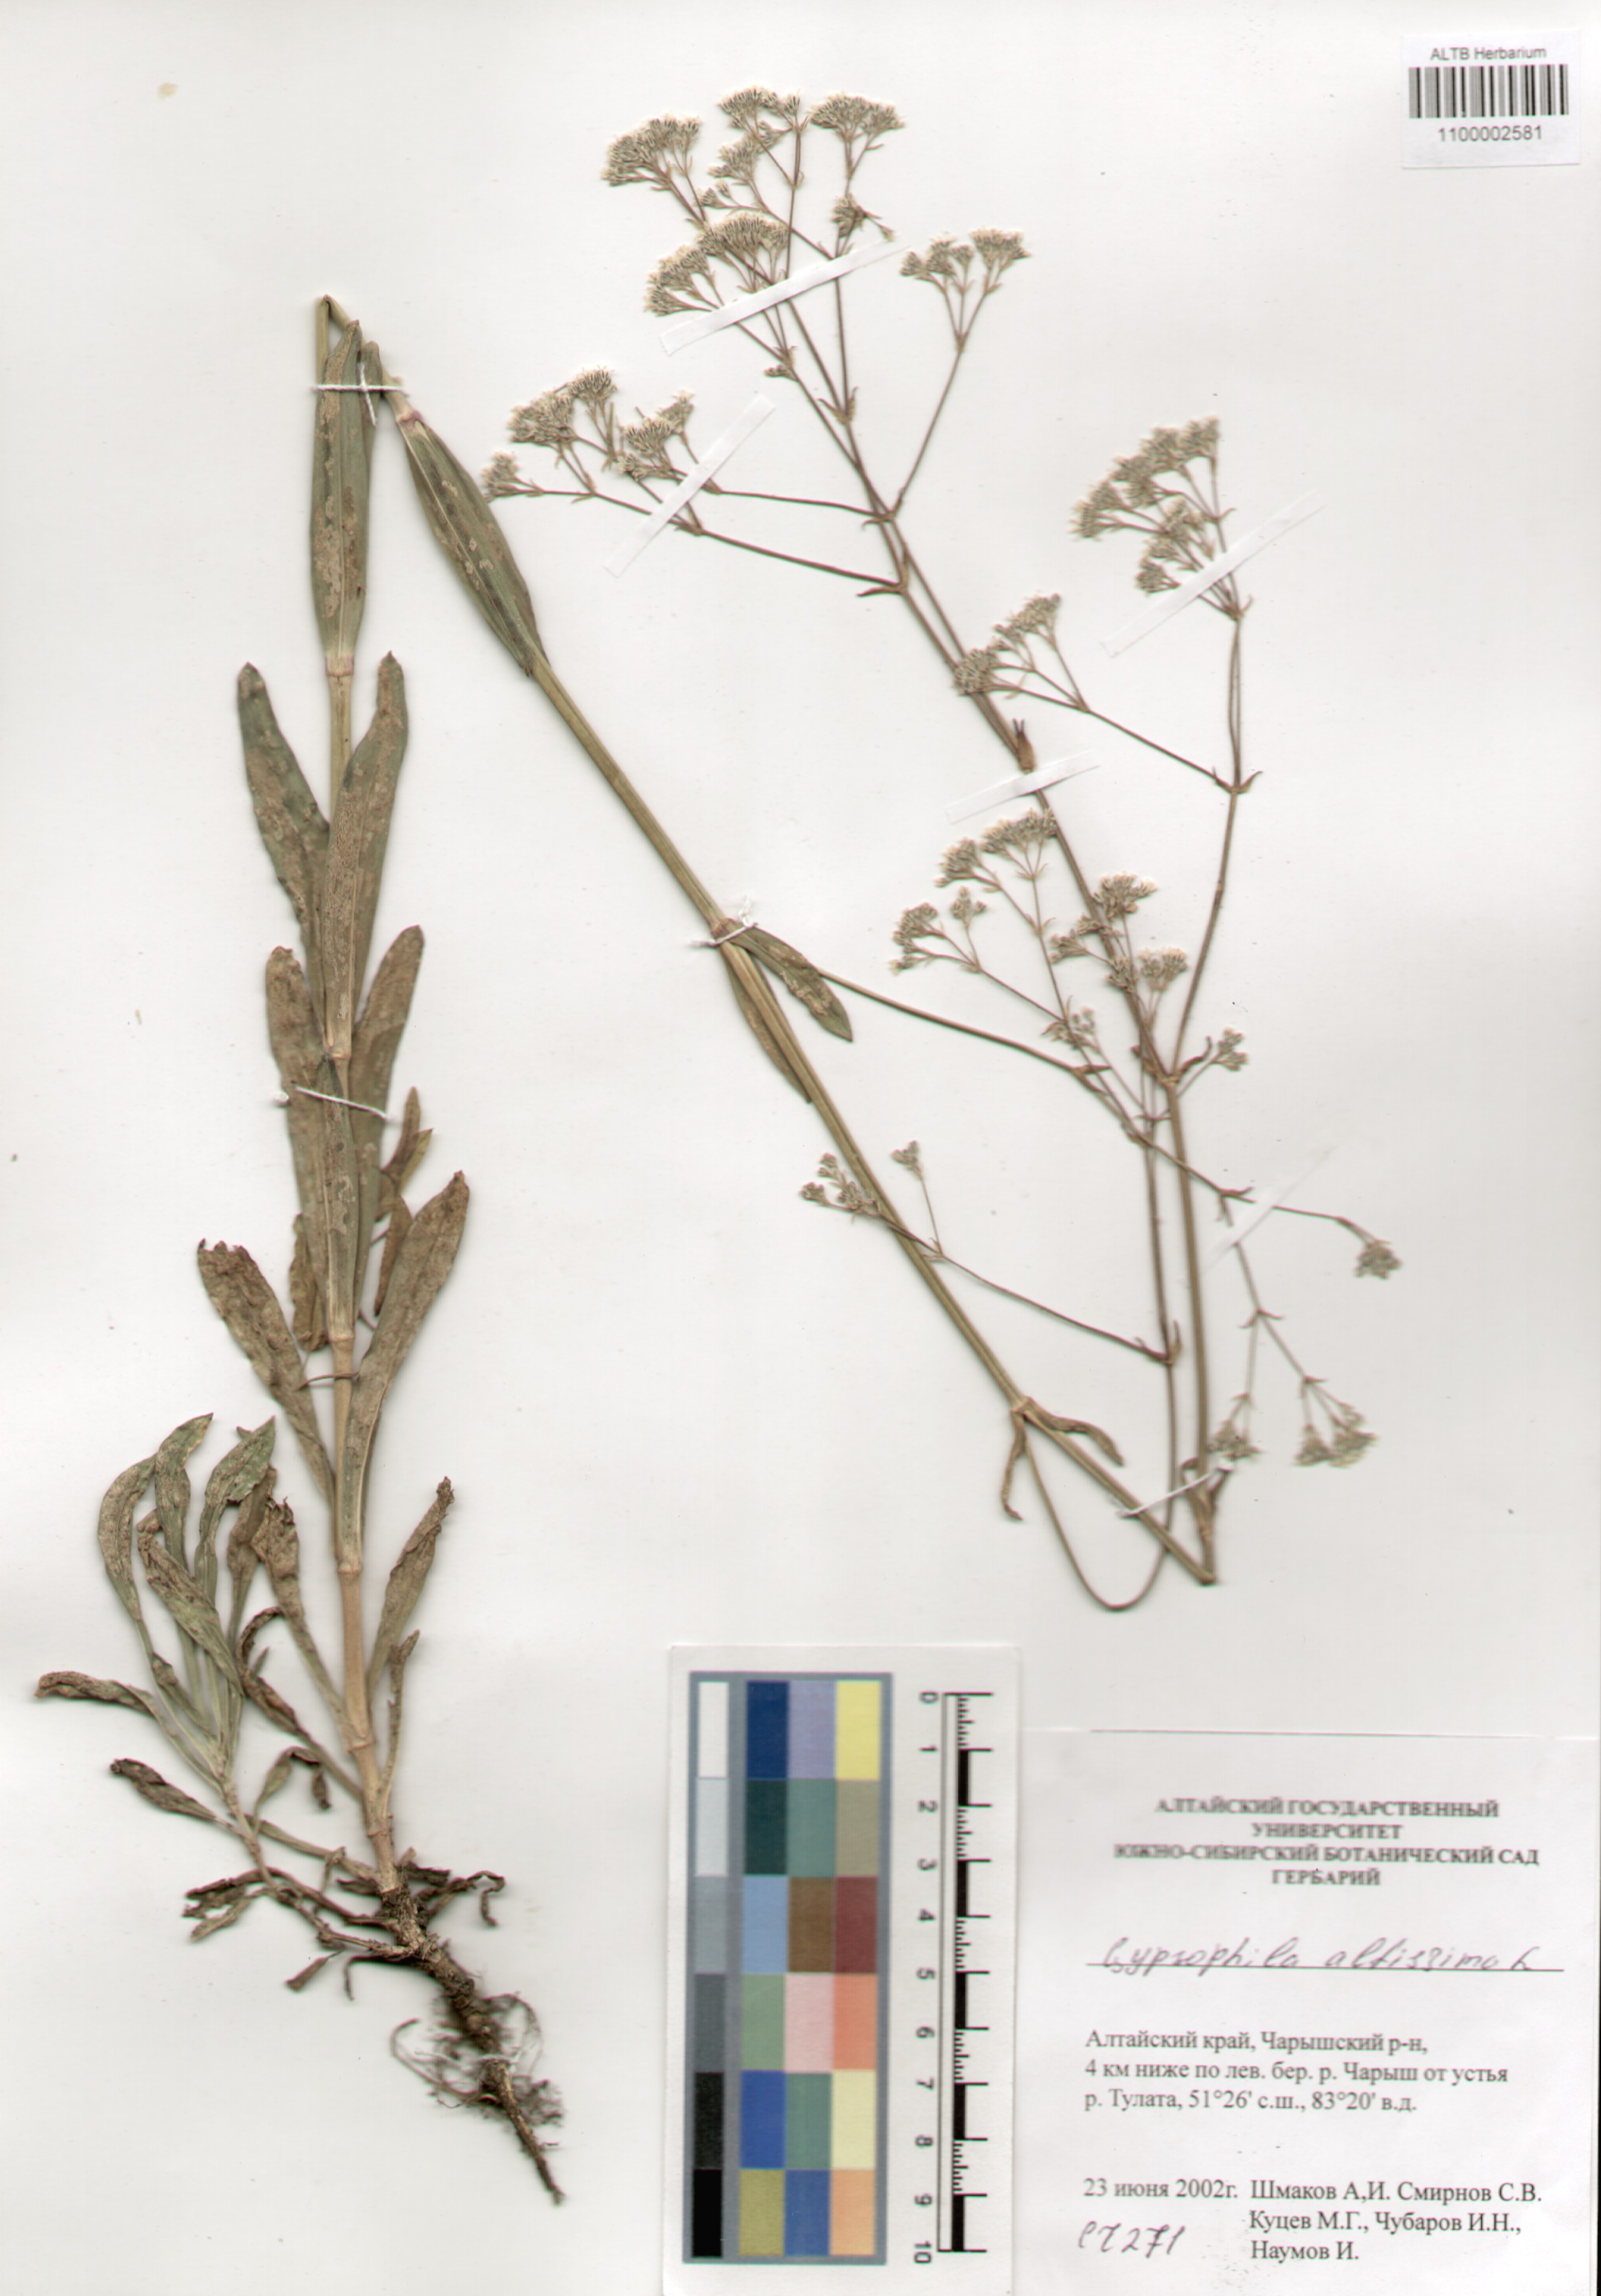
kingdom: Plantae
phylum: Tracheophyta
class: Magnoliopsida
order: Caryophyllales
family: Caryophyllaceae
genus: Gypsophila
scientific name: Gypsophila altissima
